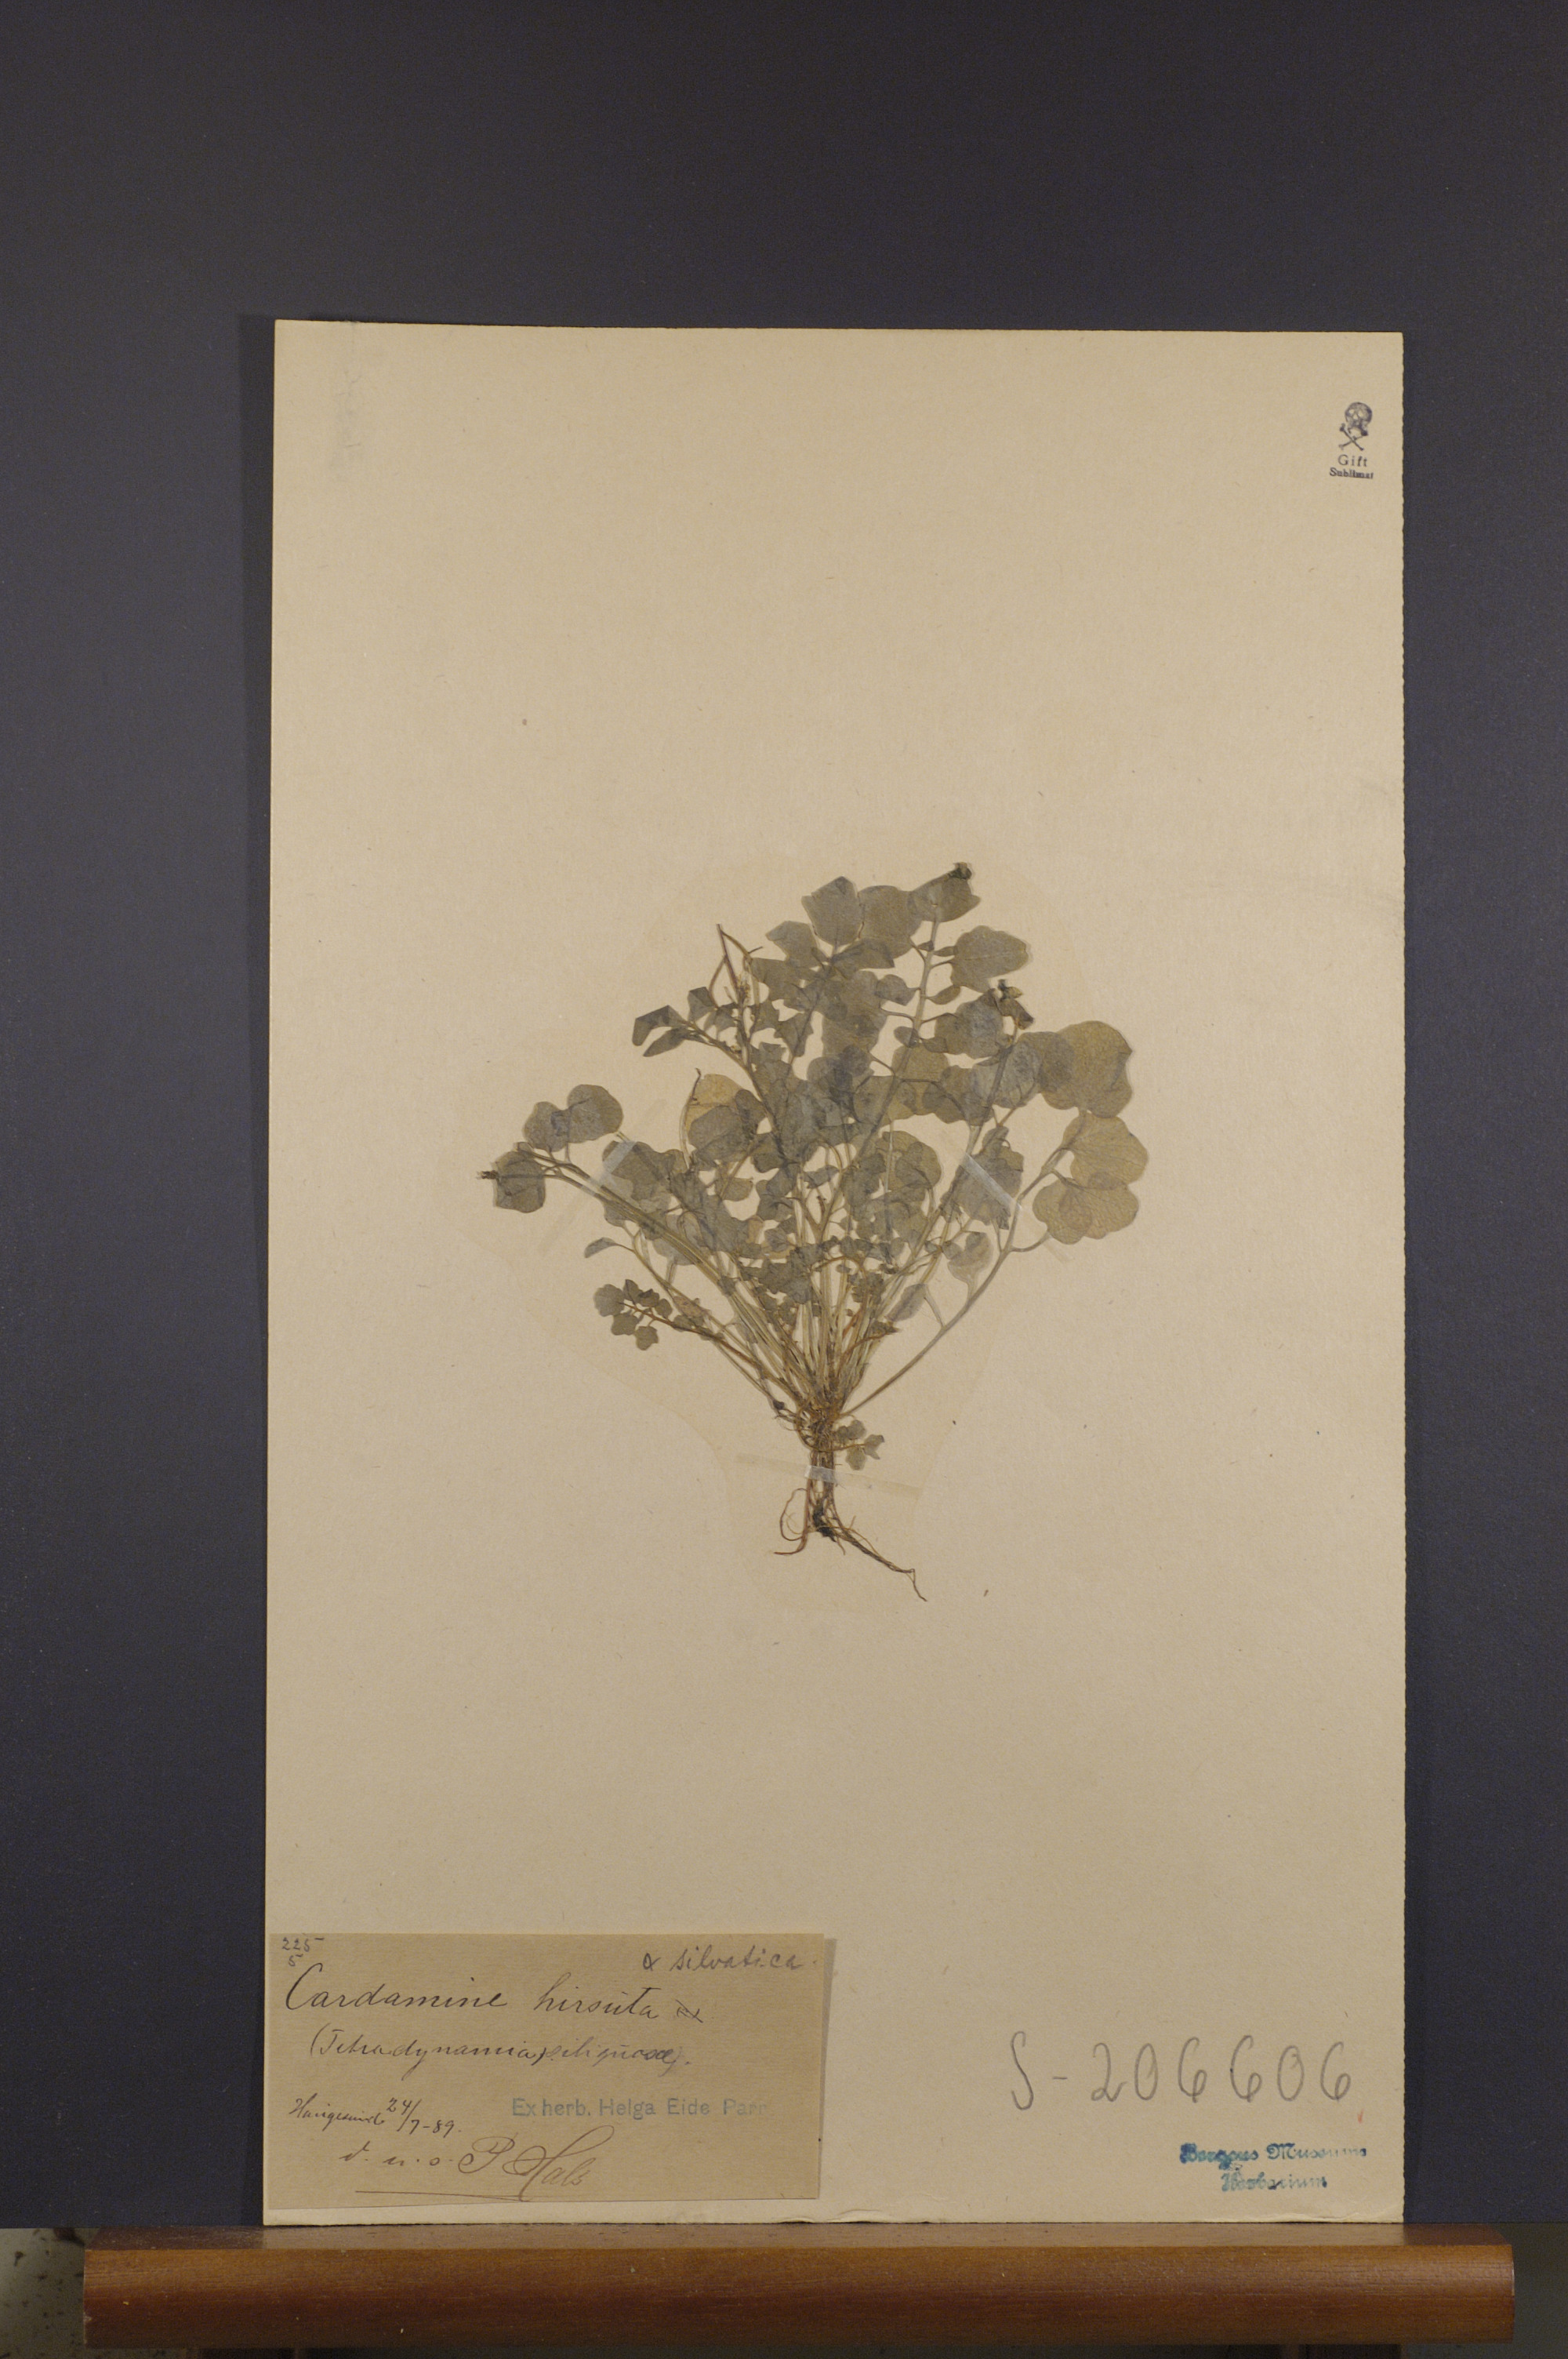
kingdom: Plantae
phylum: Tracheophyta
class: Magnoliopsida
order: Brassicales
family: Brassicaceae
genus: Cardamine
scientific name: Cardamine flexuosa
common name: Woodland bittercress
